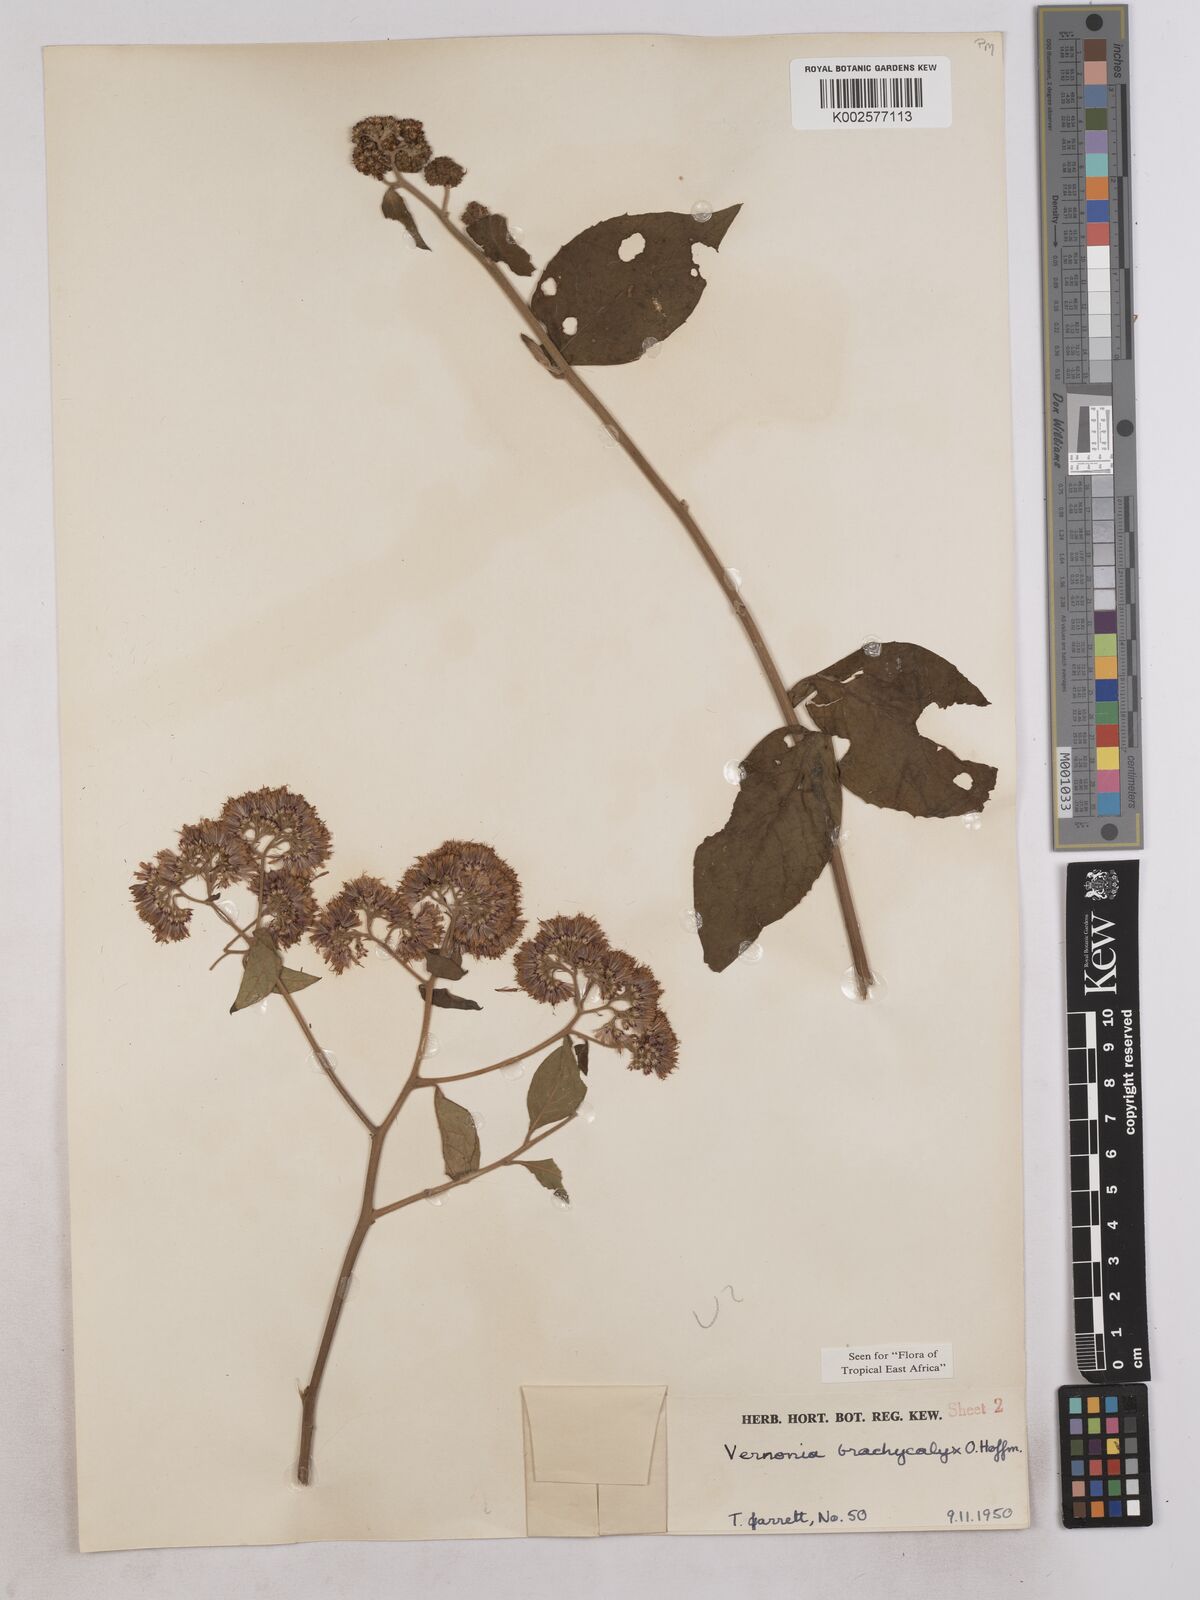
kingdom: Plantae
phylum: Tracheophyta
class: Magnoliopsida
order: Asterales
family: Asteraceae
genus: Hoffmannanthus
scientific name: Hoffmannanthus abbotianus
